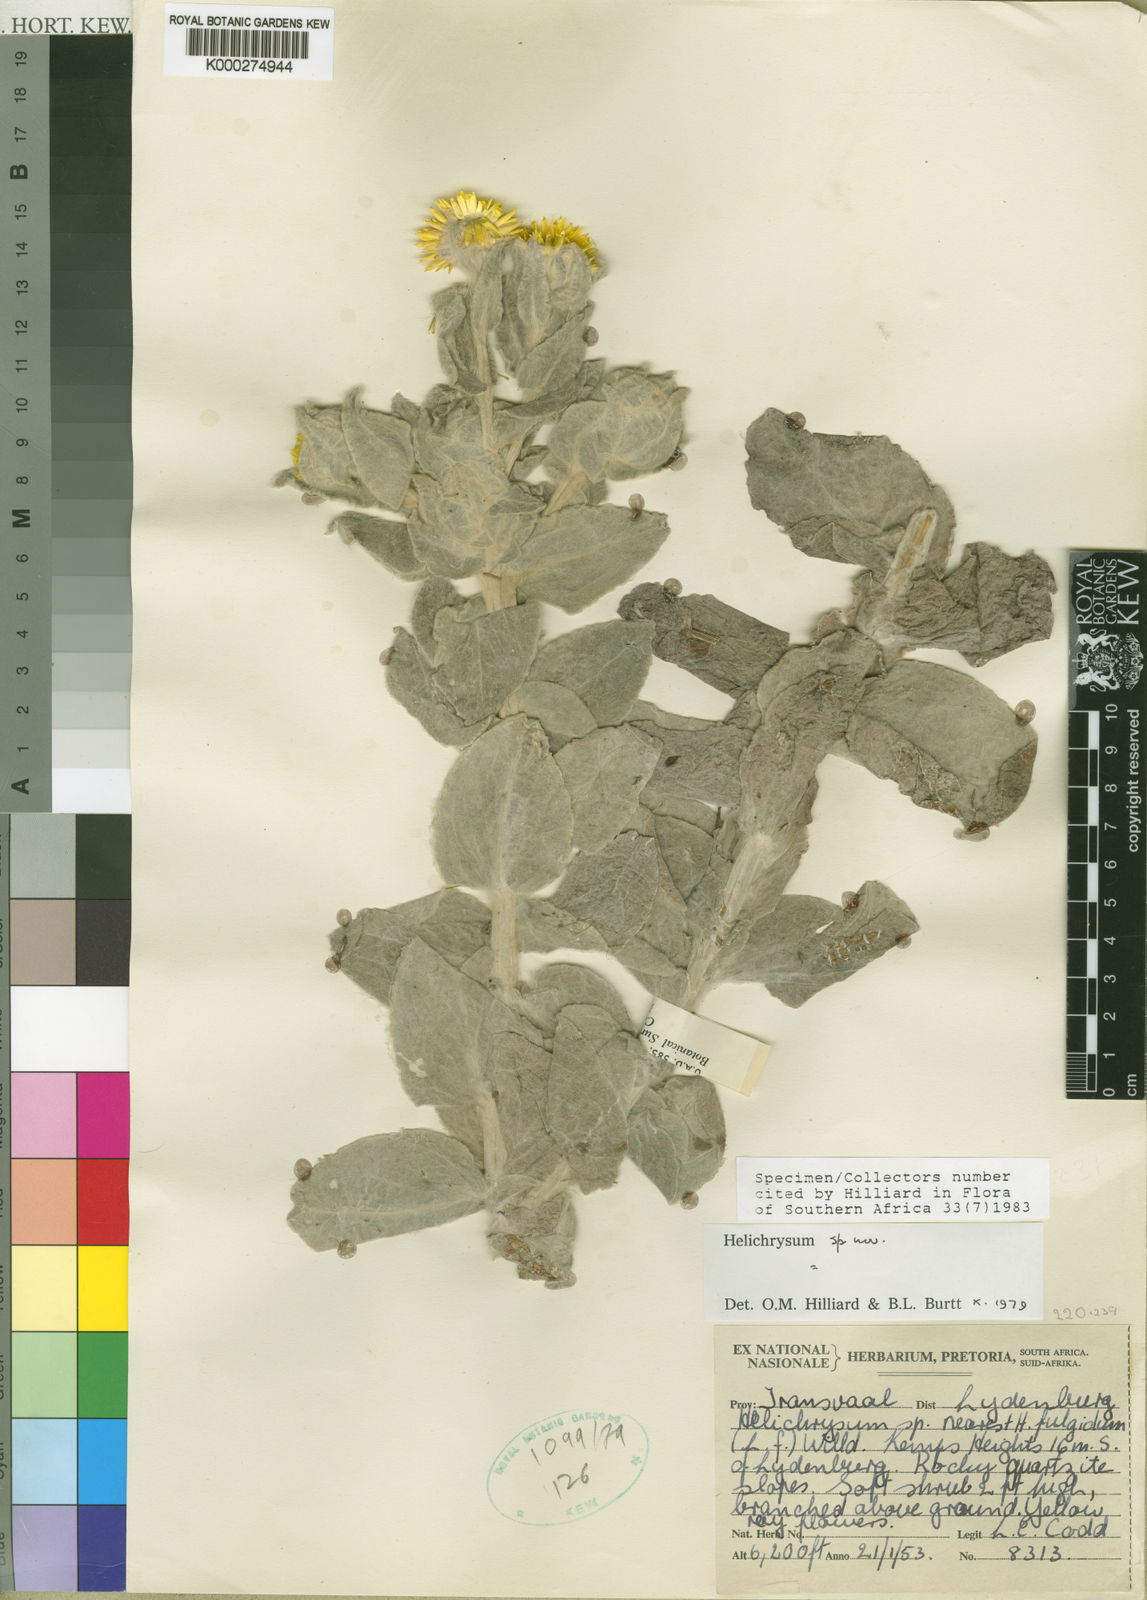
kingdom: Plantae
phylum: Tracheophyta
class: Magnoliopsida
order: Asterales
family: Asteraceae
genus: Helichrysum
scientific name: Helichrysum lesliei
